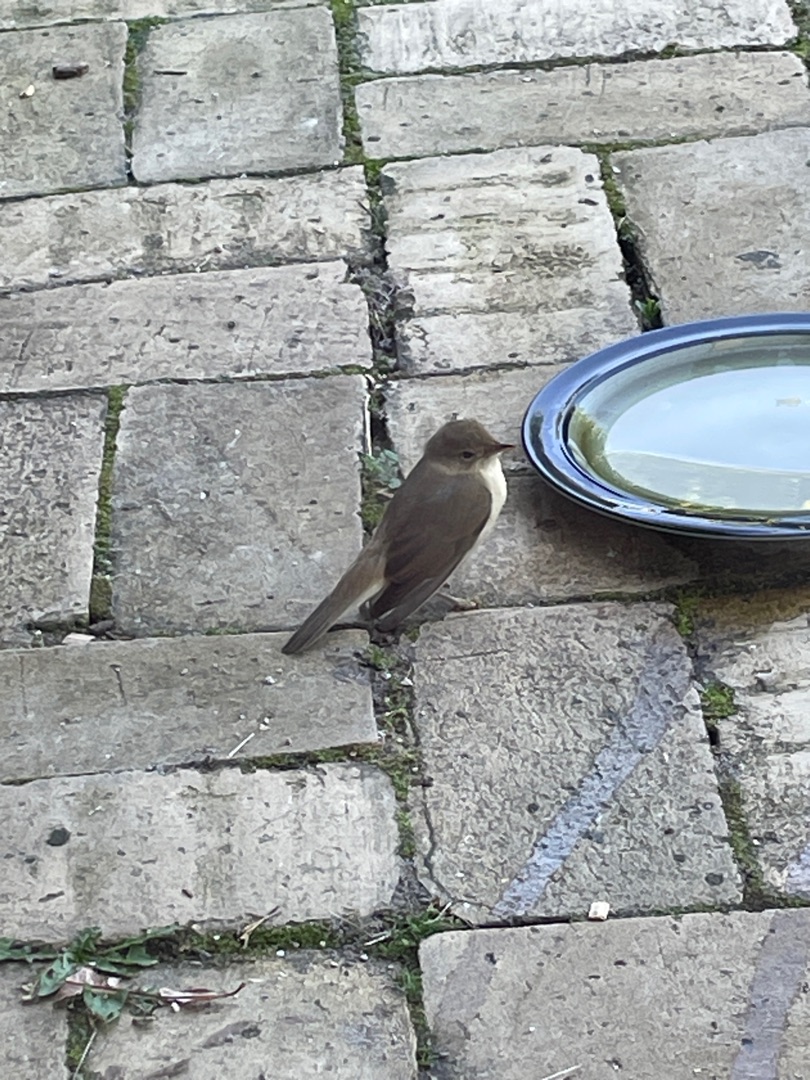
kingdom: Animalia
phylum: Chordata
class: Aves
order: Passeriformes
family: Acrocephalidae
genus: Acrocephalus
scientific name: Acrocephalus scirpaceus
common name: Rørsanger
